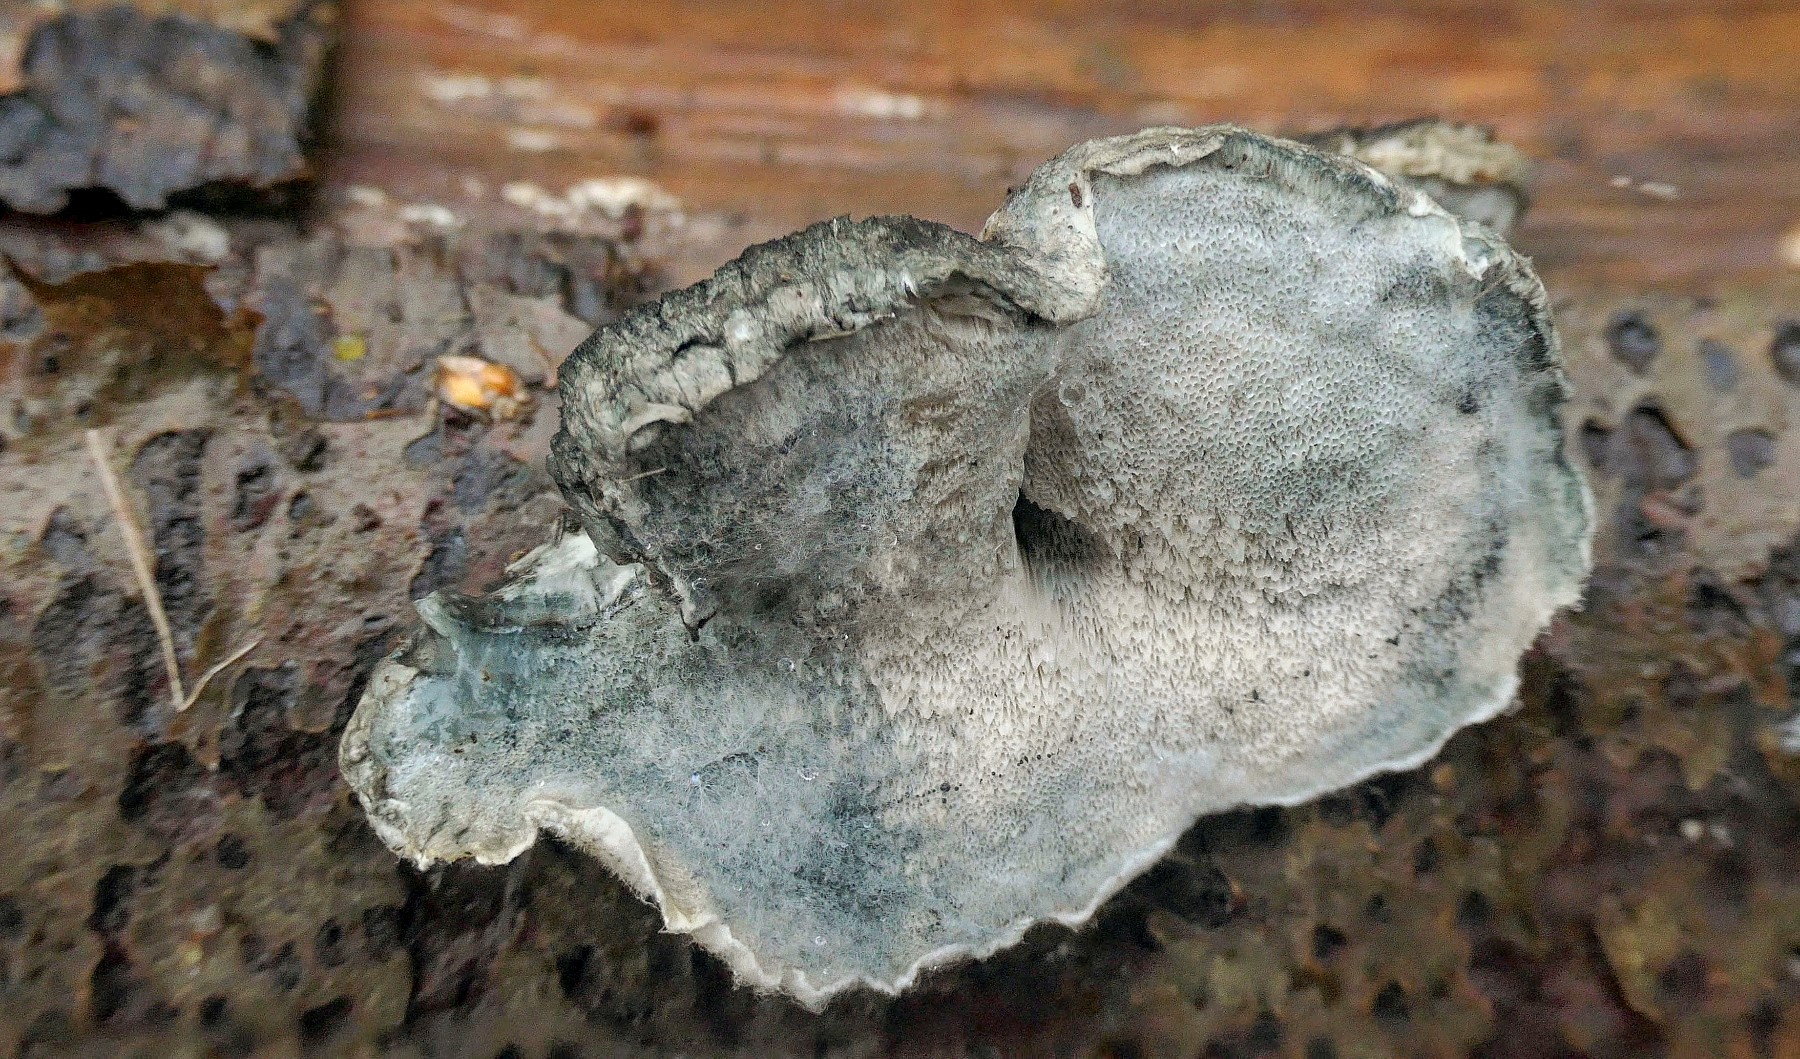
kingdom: Fungi
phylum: Basidiomycota
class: Agaricomycetes
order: Polyporales
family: Polyporaceae
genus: Cyanosporus
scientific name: Cyanosporus alni
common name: blegblå kødporesvamp
